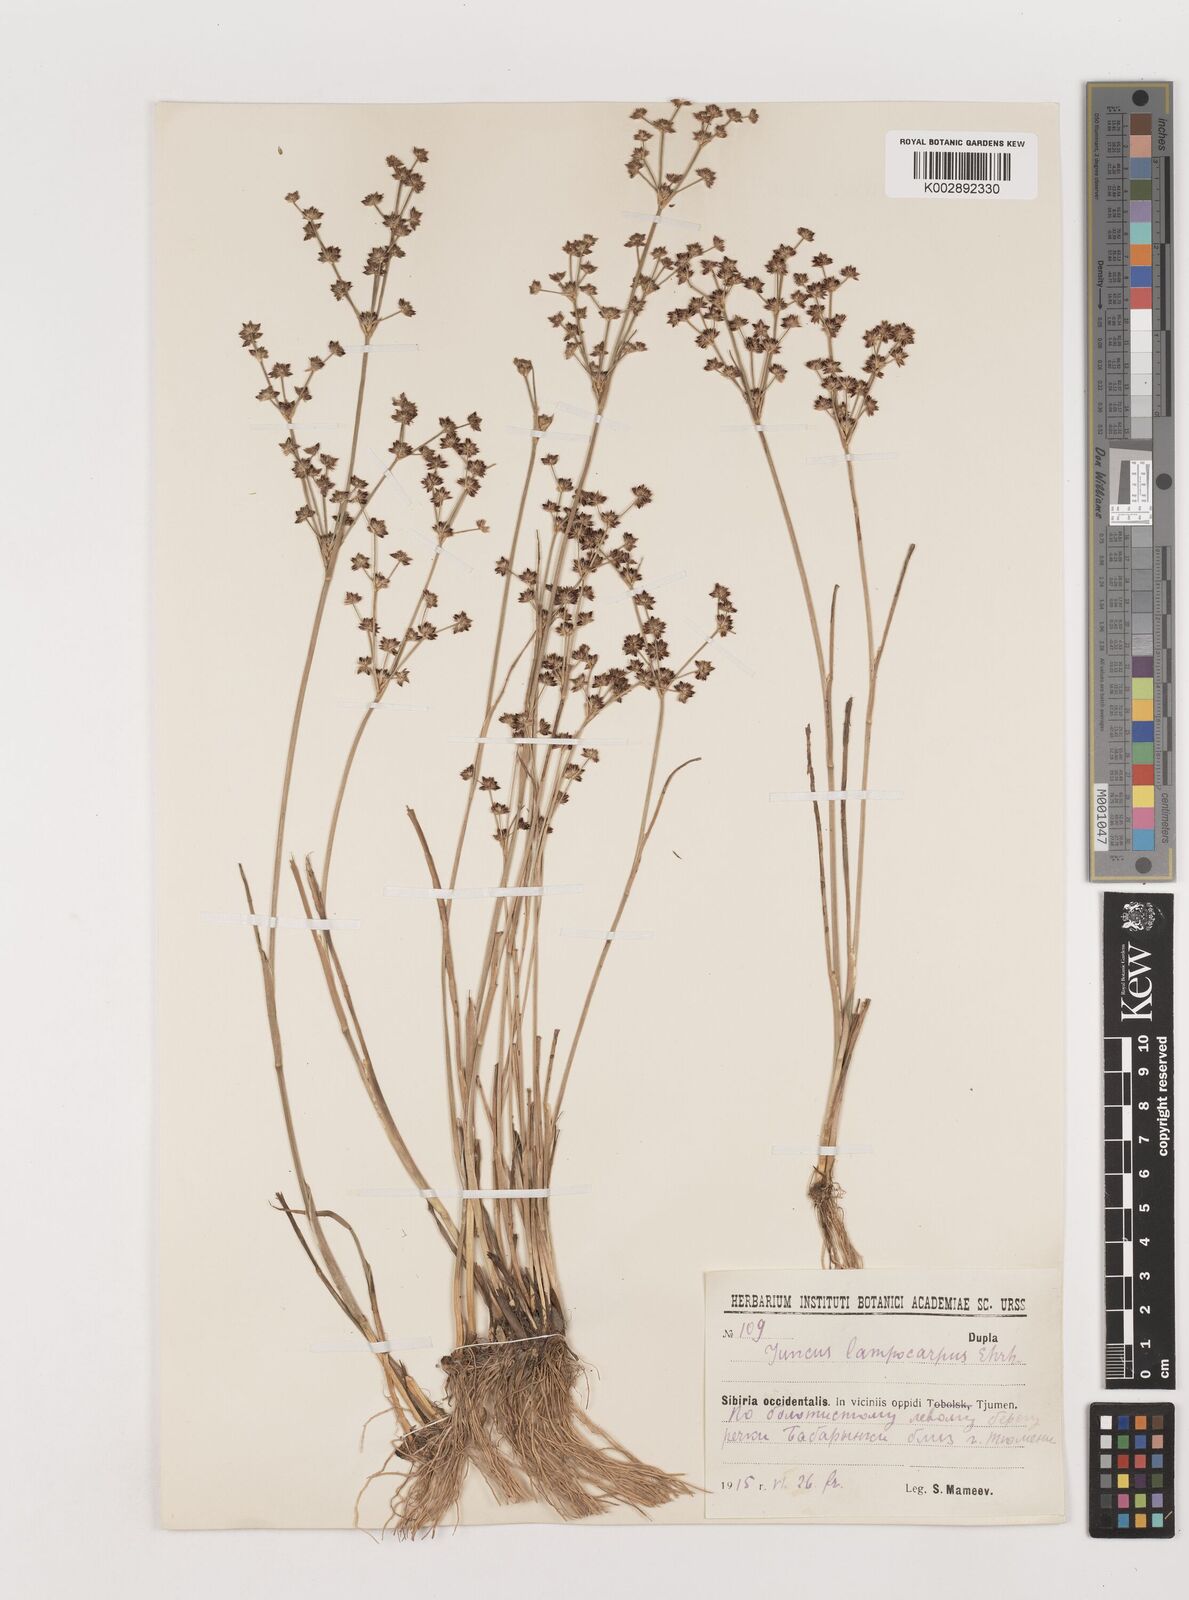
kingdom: Plantae
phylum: Tracheophyta
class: Liliopsida
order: Poales
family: Juncaceae
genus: Juncus
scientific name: Juncus articulatus
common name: Jointed rush
